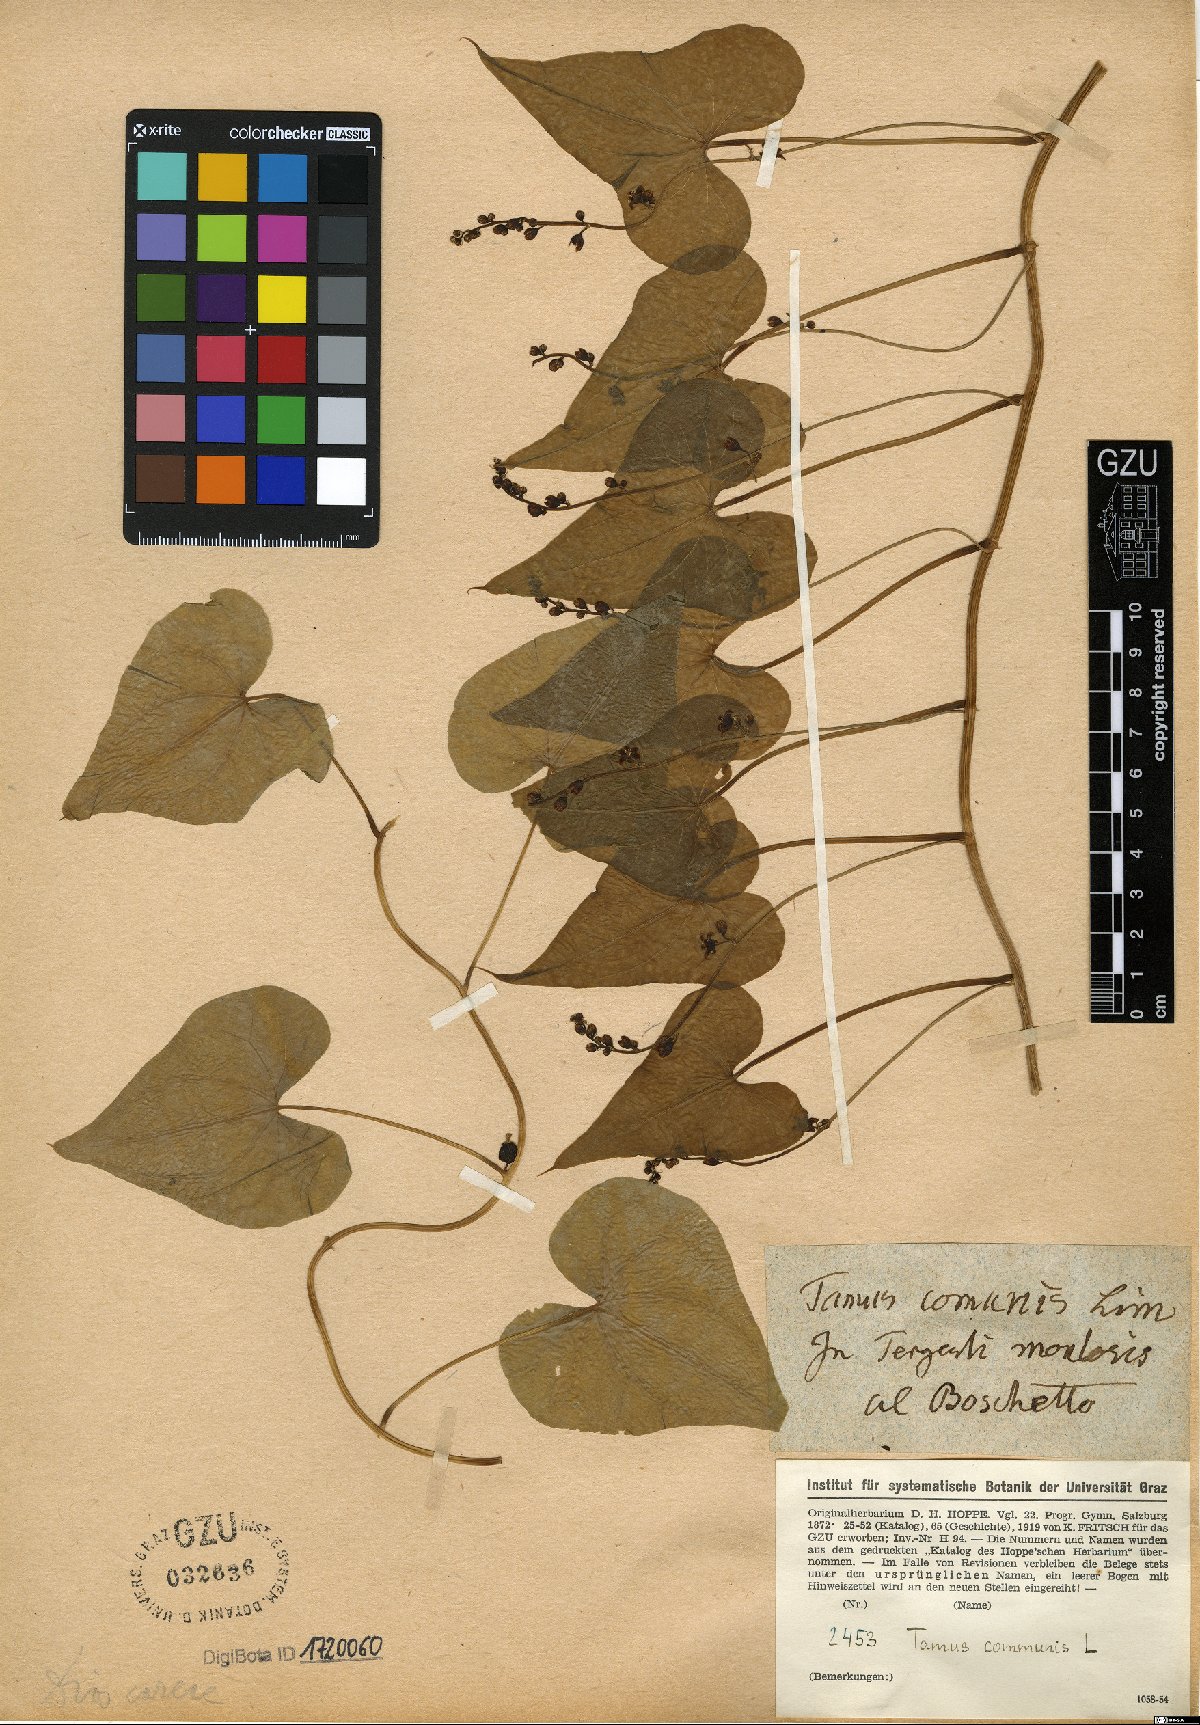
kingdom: Plantae
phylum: Tracheophyta
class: Liliopsida
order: Dioscoreales
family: Dioscoreaceae
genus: Dioscorea
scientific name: Dioscorea communis
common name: Black-bindweed
